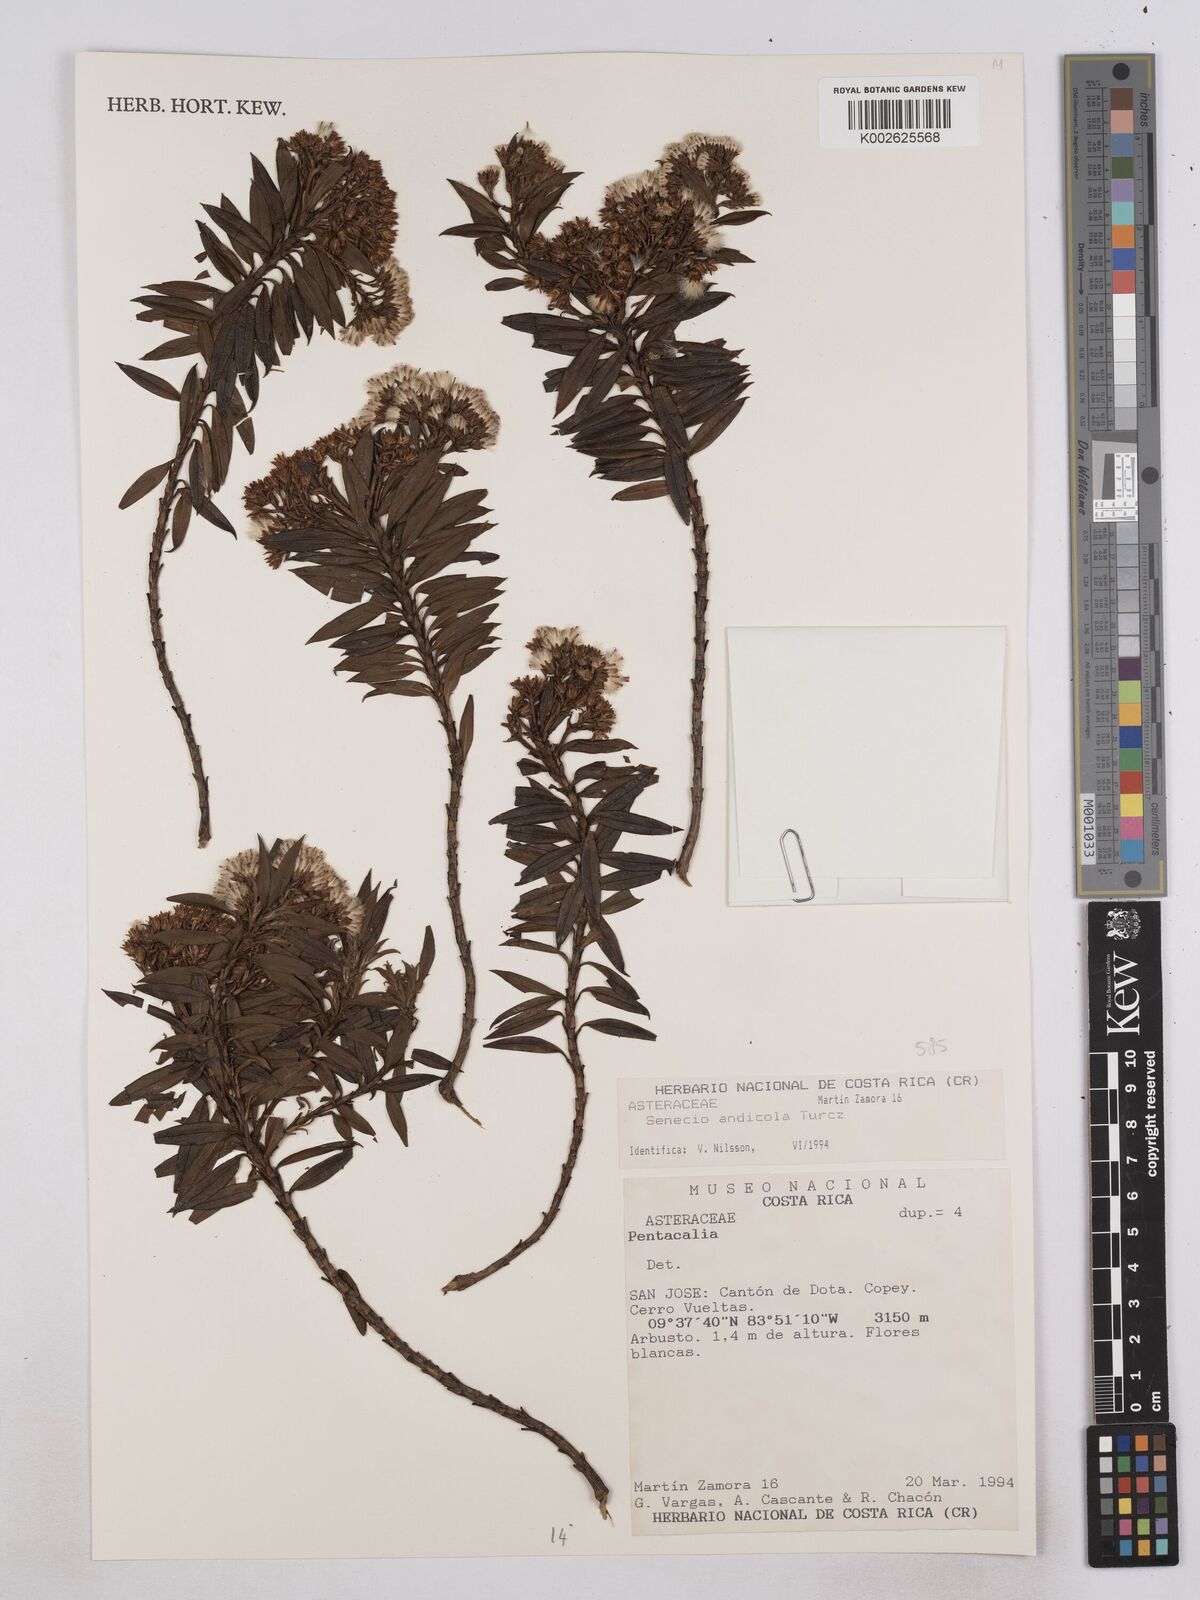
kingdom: Plantae
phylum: Tracheophyta
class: Magnoliopsida
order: Asterales
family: Asteraceae
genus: Monticalia
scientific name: Monticalia andicola
